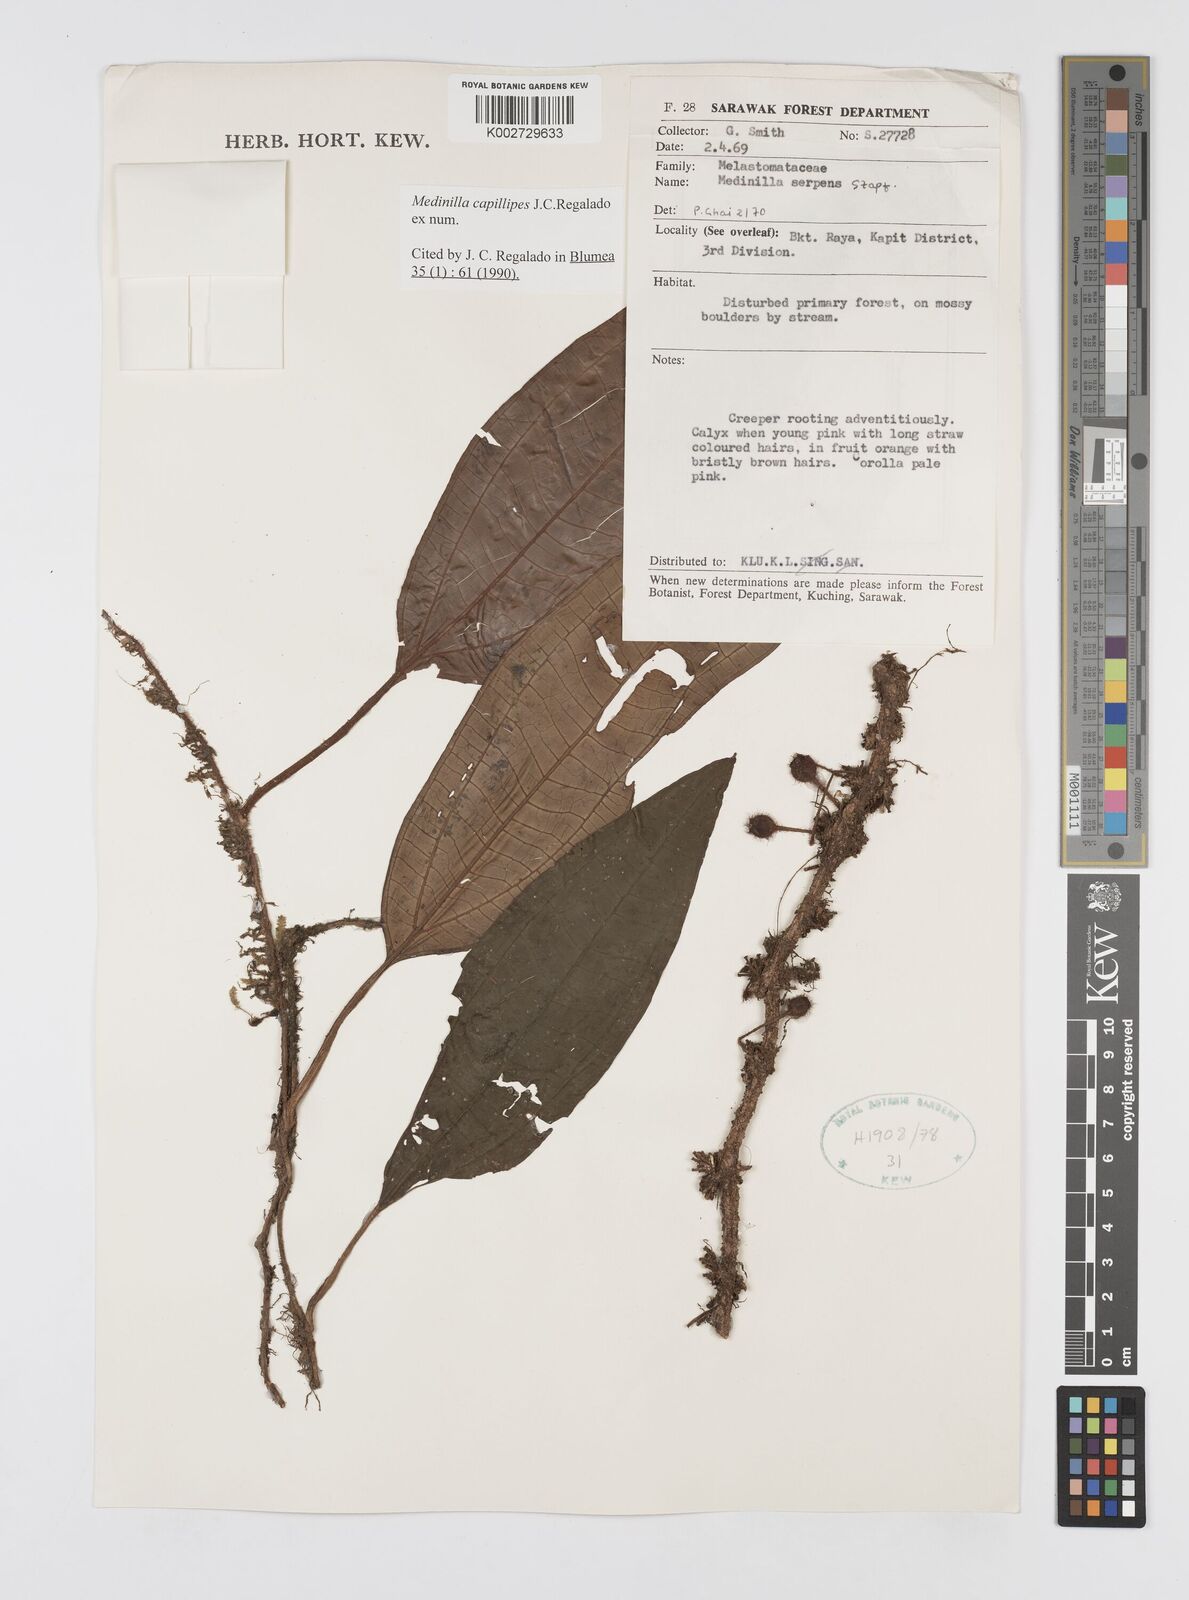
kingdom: Plantae
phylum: Tracheophyta
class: Magnoliopsida
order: Myrtales
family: Melastomataceae
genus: Heteroblemma
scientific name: Heteroblemma capillipes
